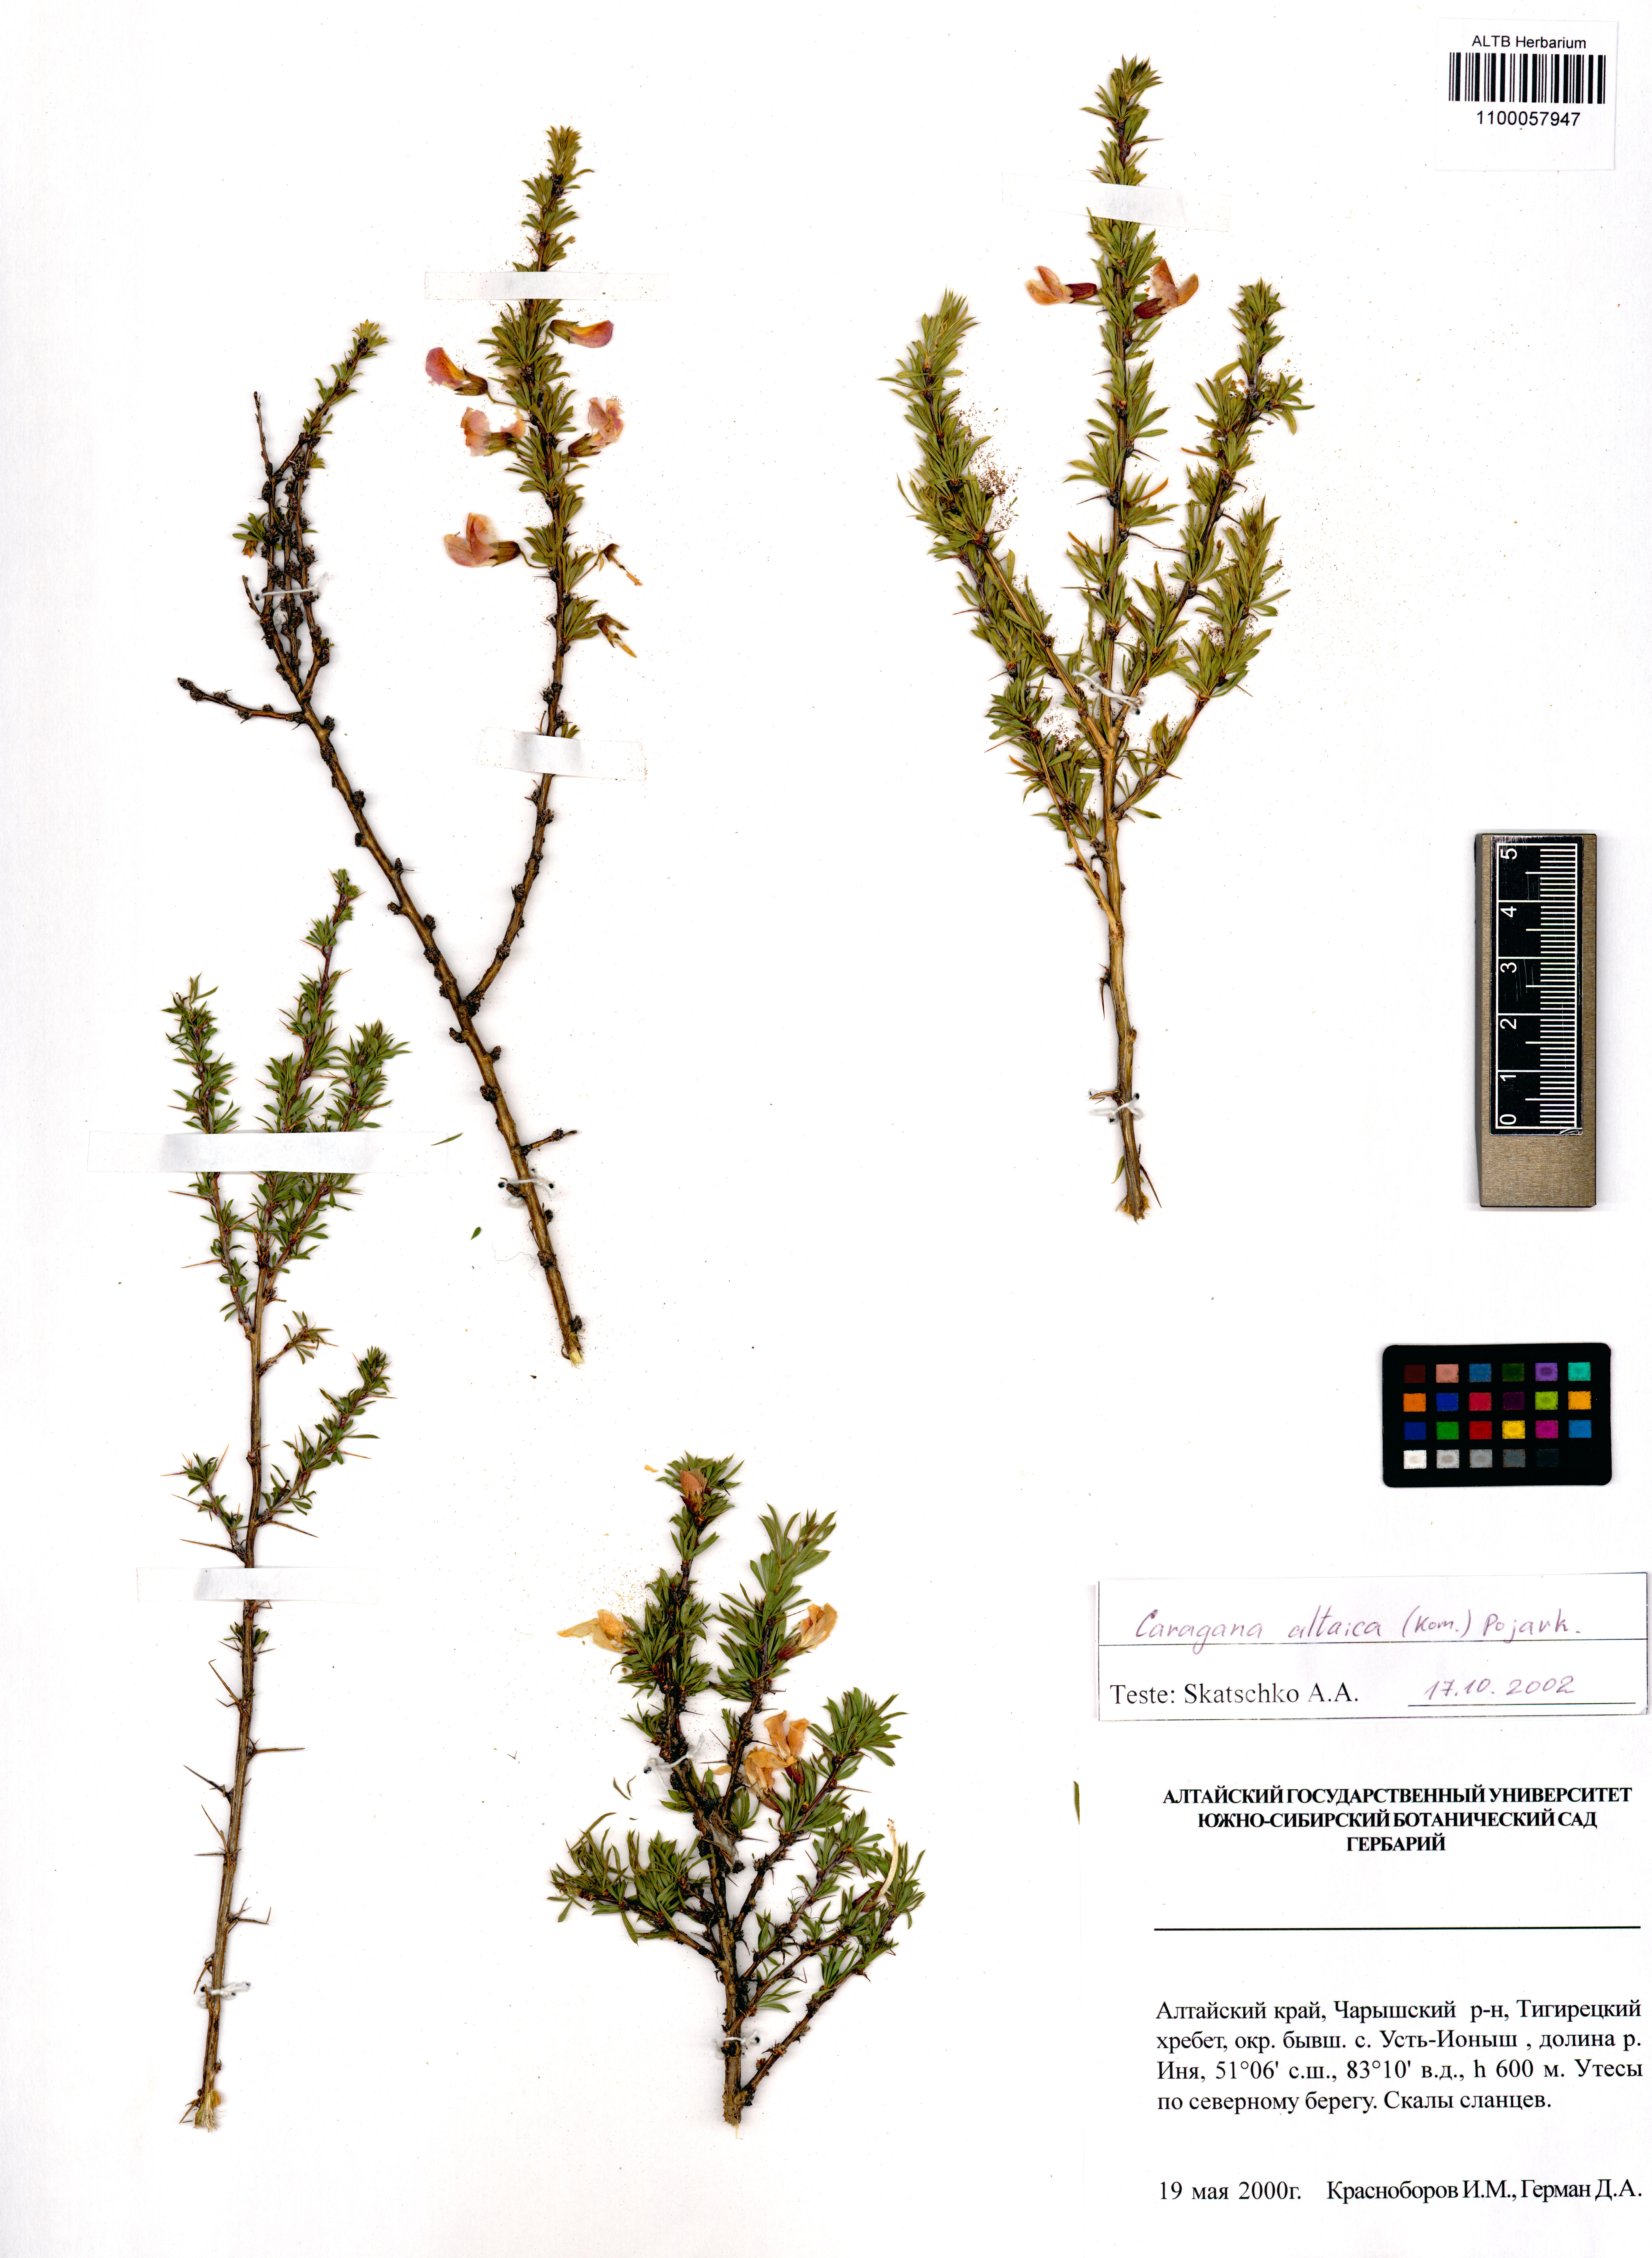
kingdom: Plantae
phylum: Tracheophyta
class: Magnoliopsida
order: Fabales
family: Fabaceae
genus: Caragana
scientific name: Caragana pygmaea
